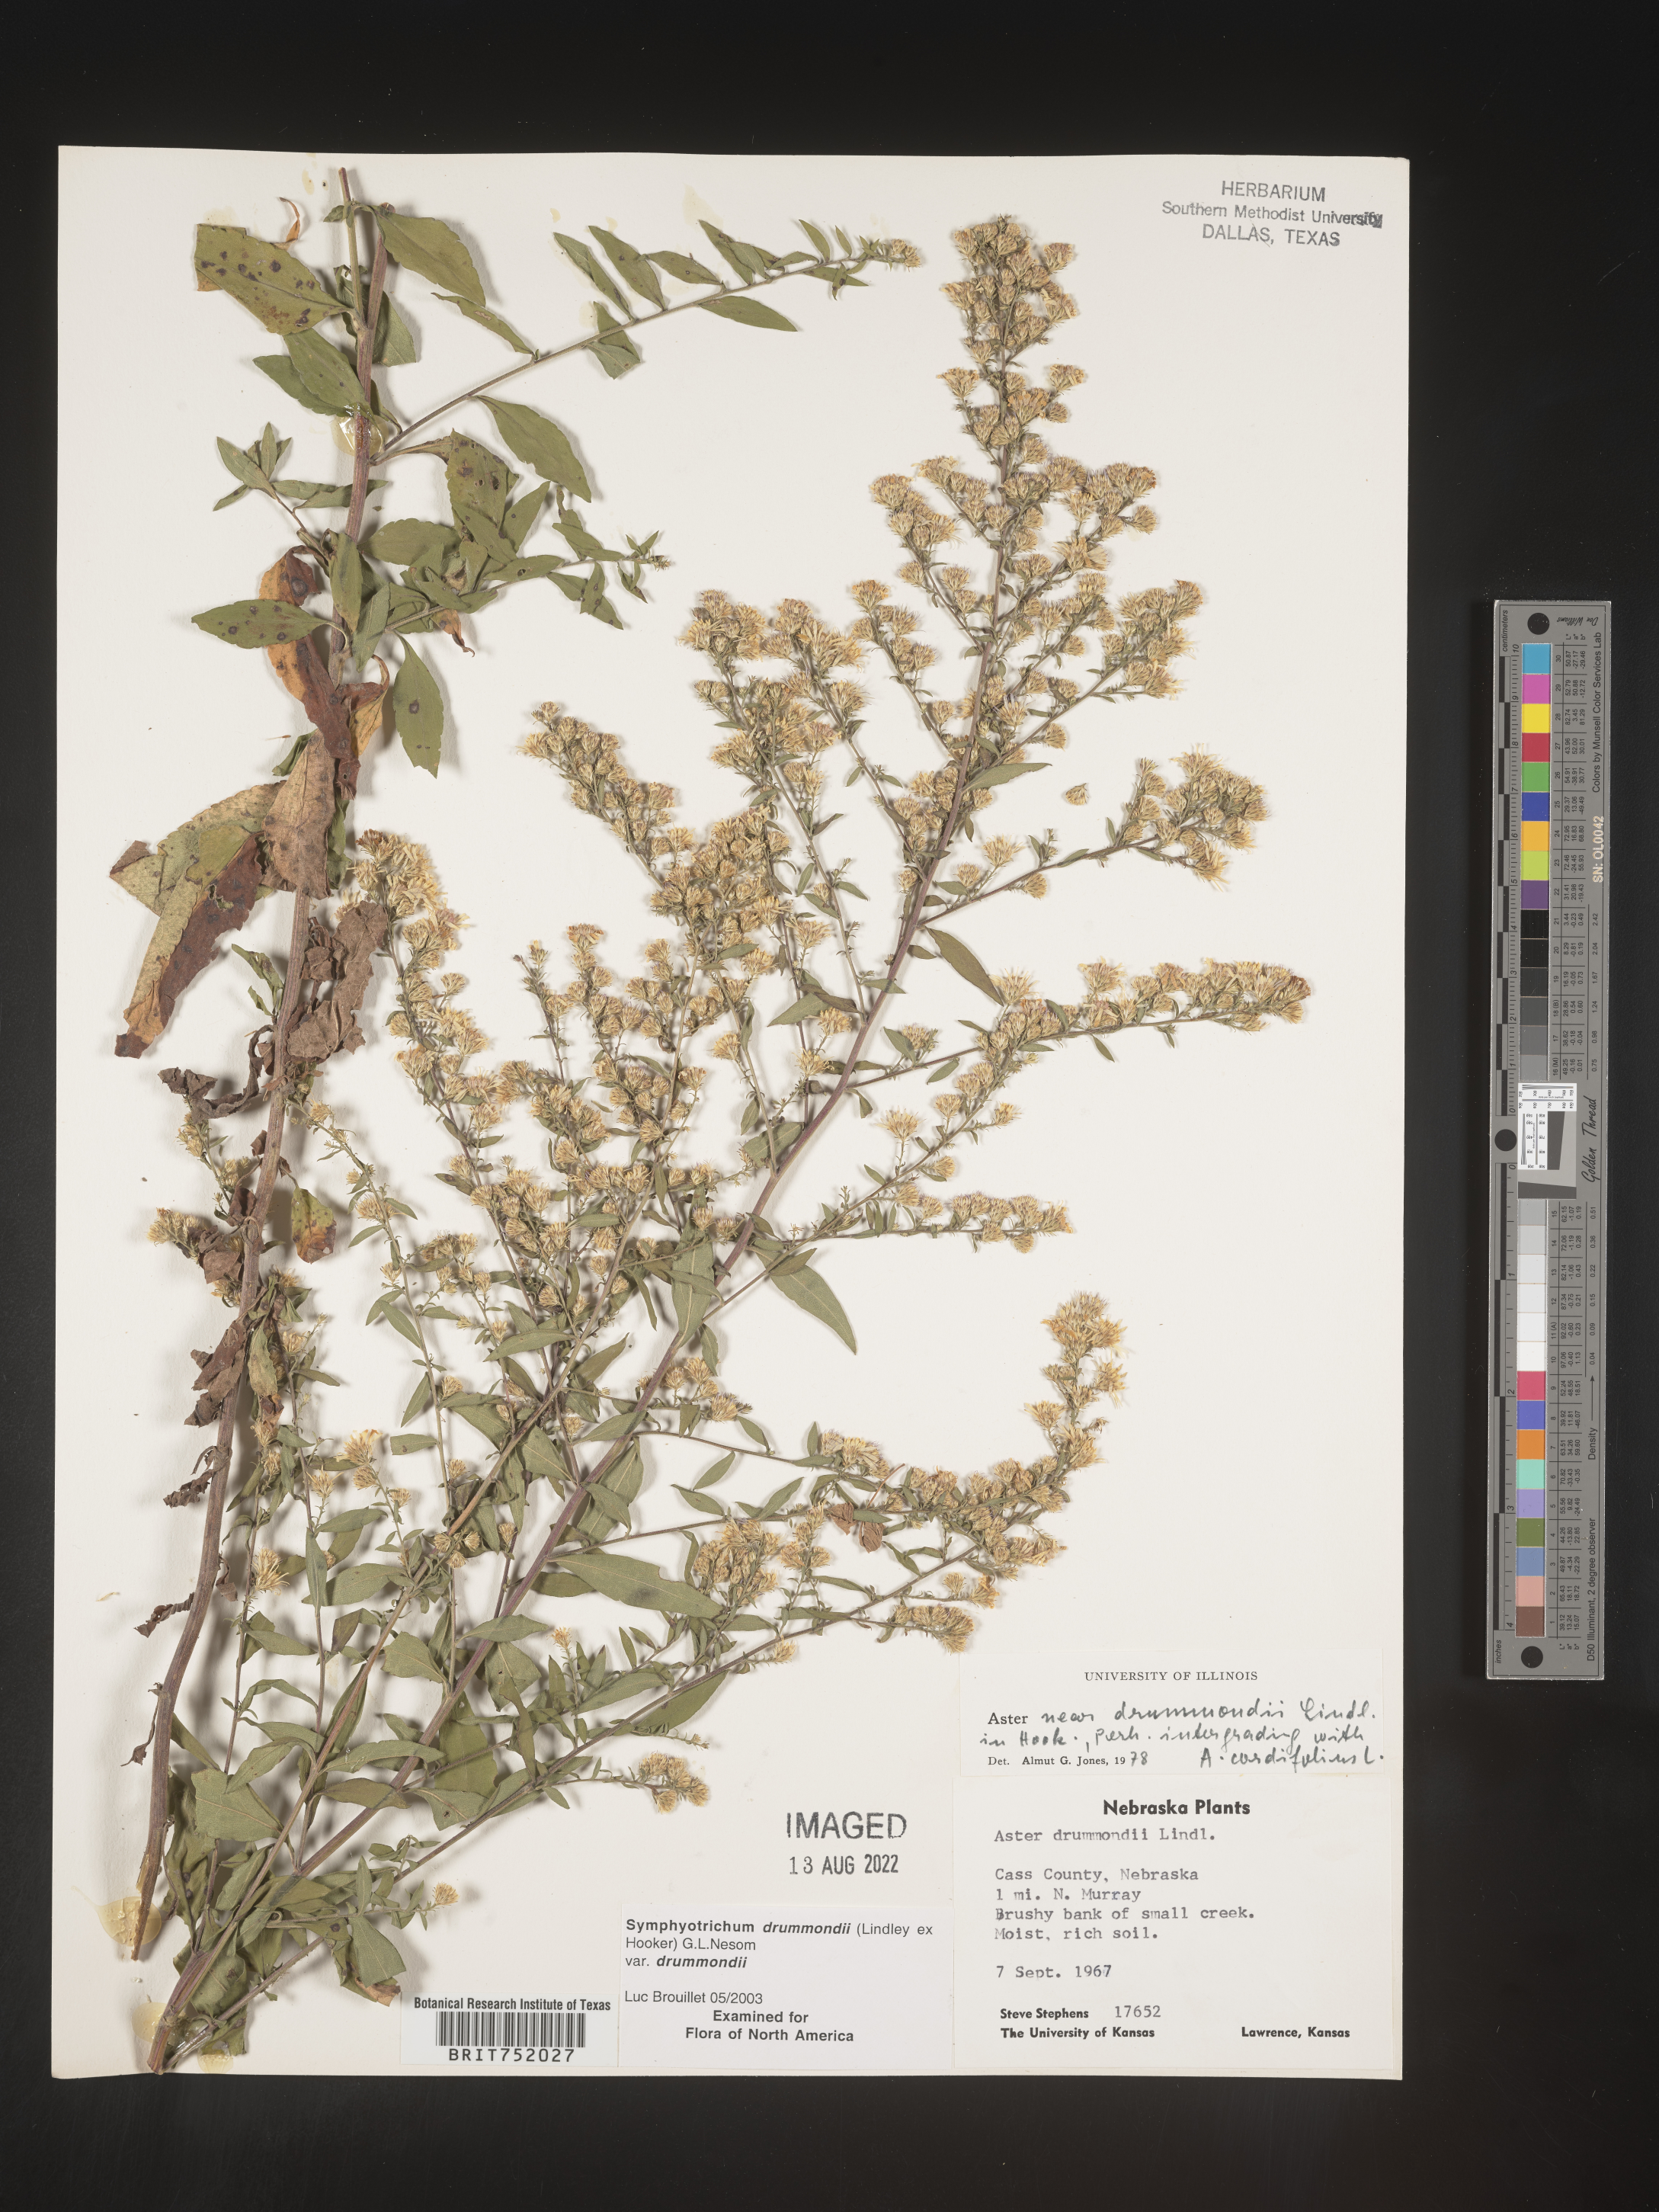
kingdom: Plantae
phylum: Tracheophyta
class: Magnoliopsida
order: Asterales
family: Asteraceae
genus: Symphyotrichum
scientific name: Symphyotrichum drummondii
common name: Drummond's aster
